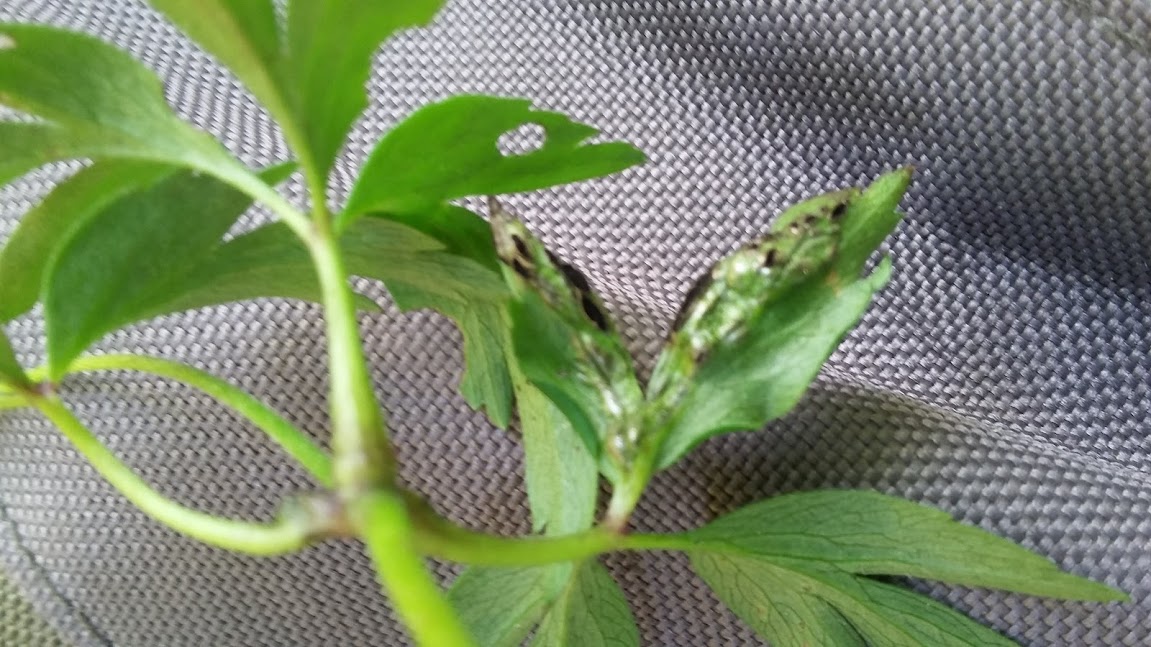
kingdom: Fungi
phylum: Basidiomycota
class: Ustilaginomycetes
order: Urocystidales
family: Urocystidaceae
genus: Urocystis
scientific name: Urocystis anemones
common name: anemone-brand
